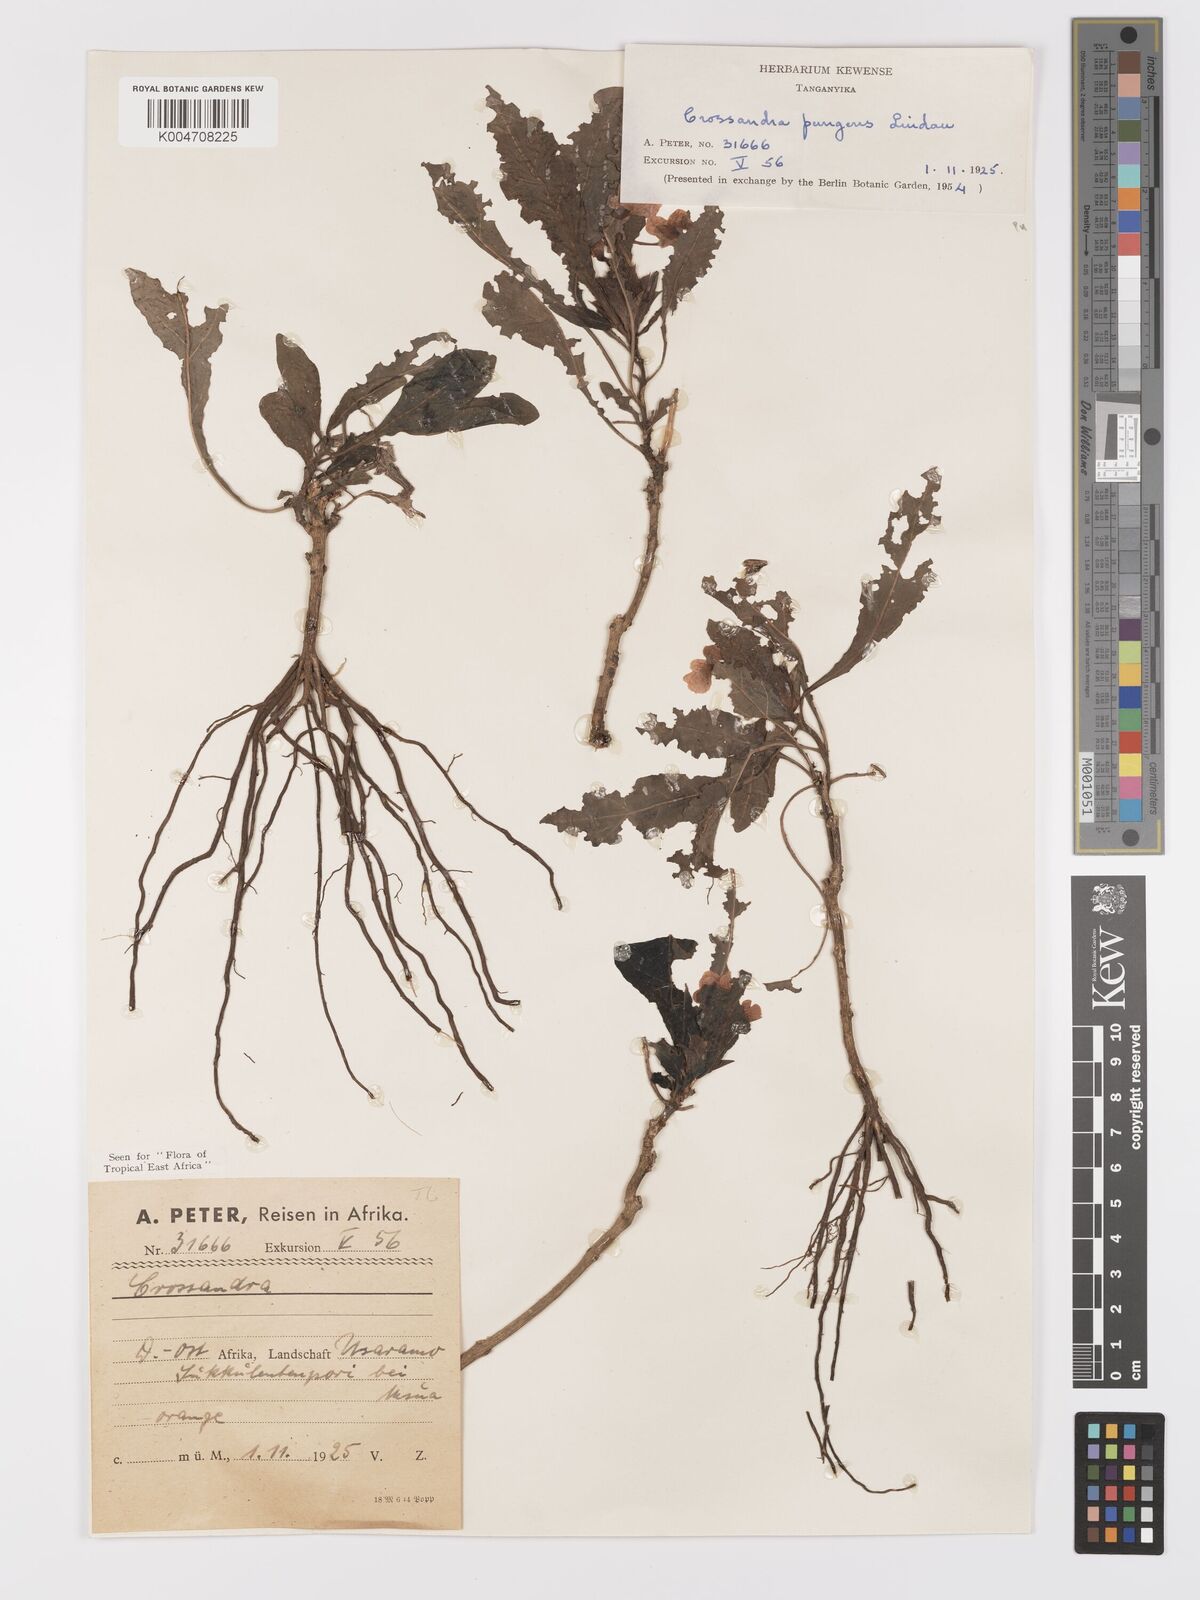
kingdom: Plantae
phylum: Tracheophyta
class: Magnoliopsida
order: Lamiales
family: Acanthaceae
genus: Crossandra
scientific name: Crossandra pungens
